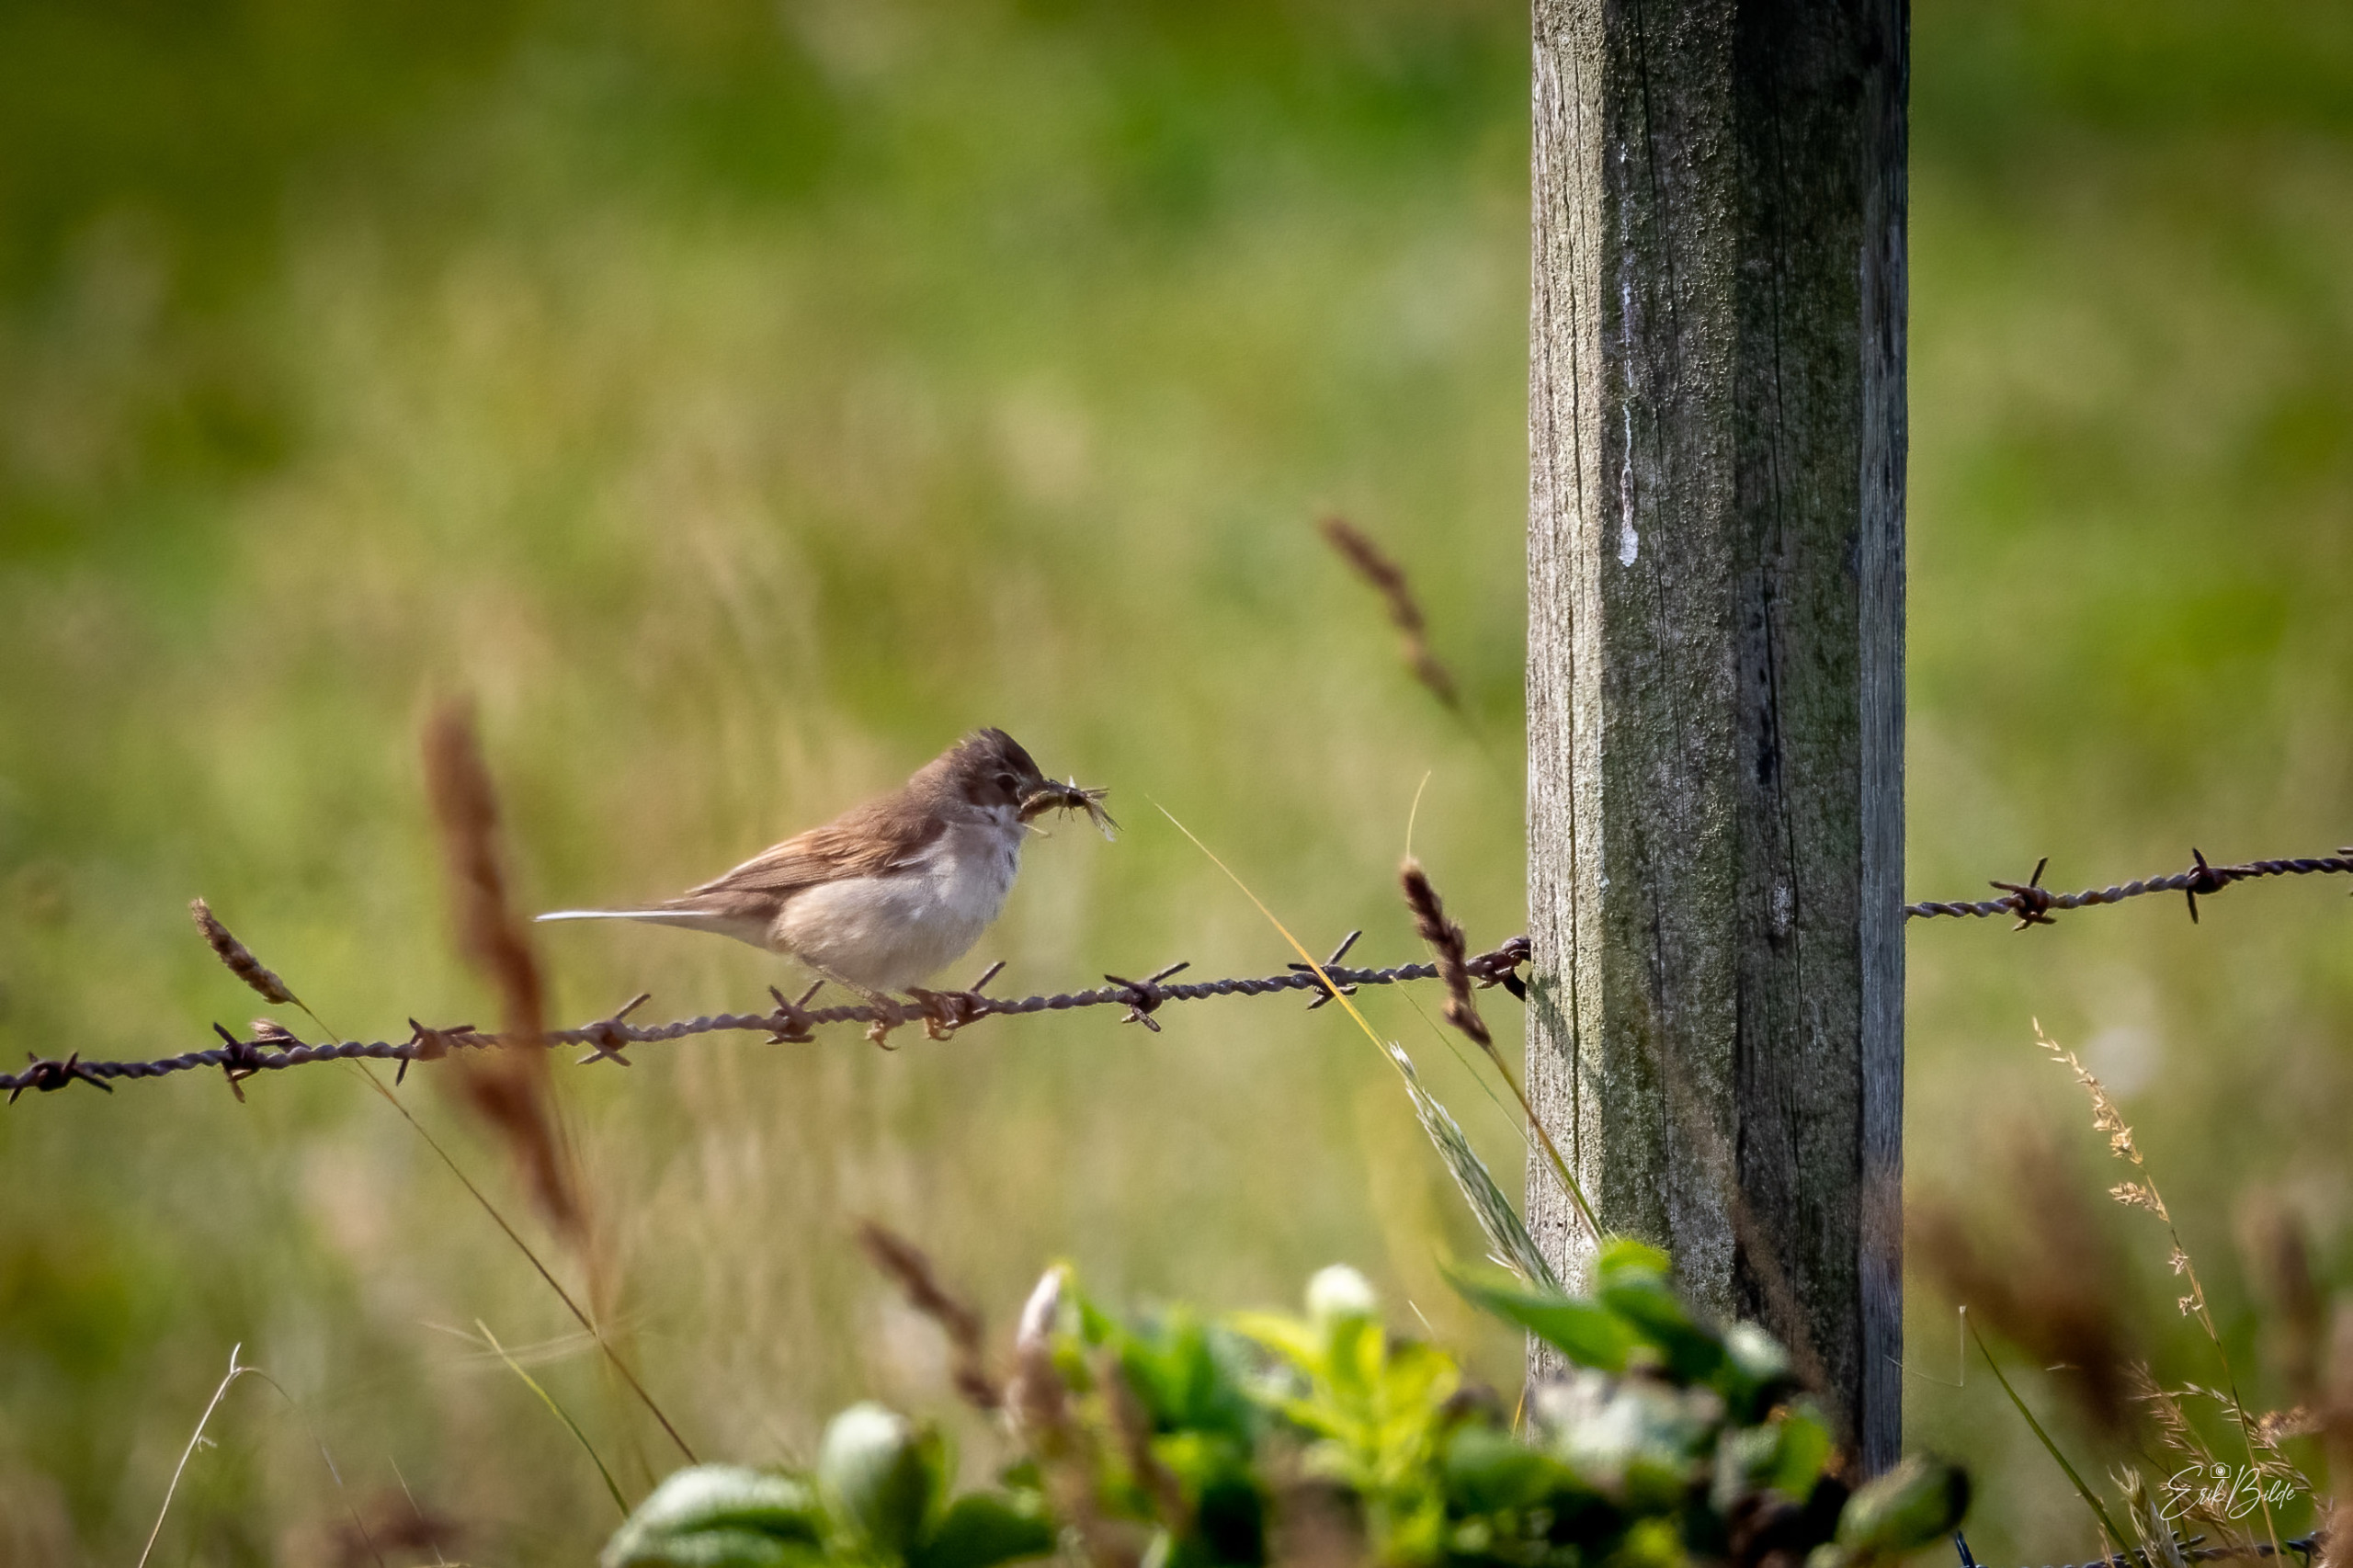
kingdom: Animalia
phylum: Chordata
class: Aves
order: Passeriformes
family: Sylviidae
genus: Sylvia
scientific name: Sylvia communis
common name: Tornsanger
